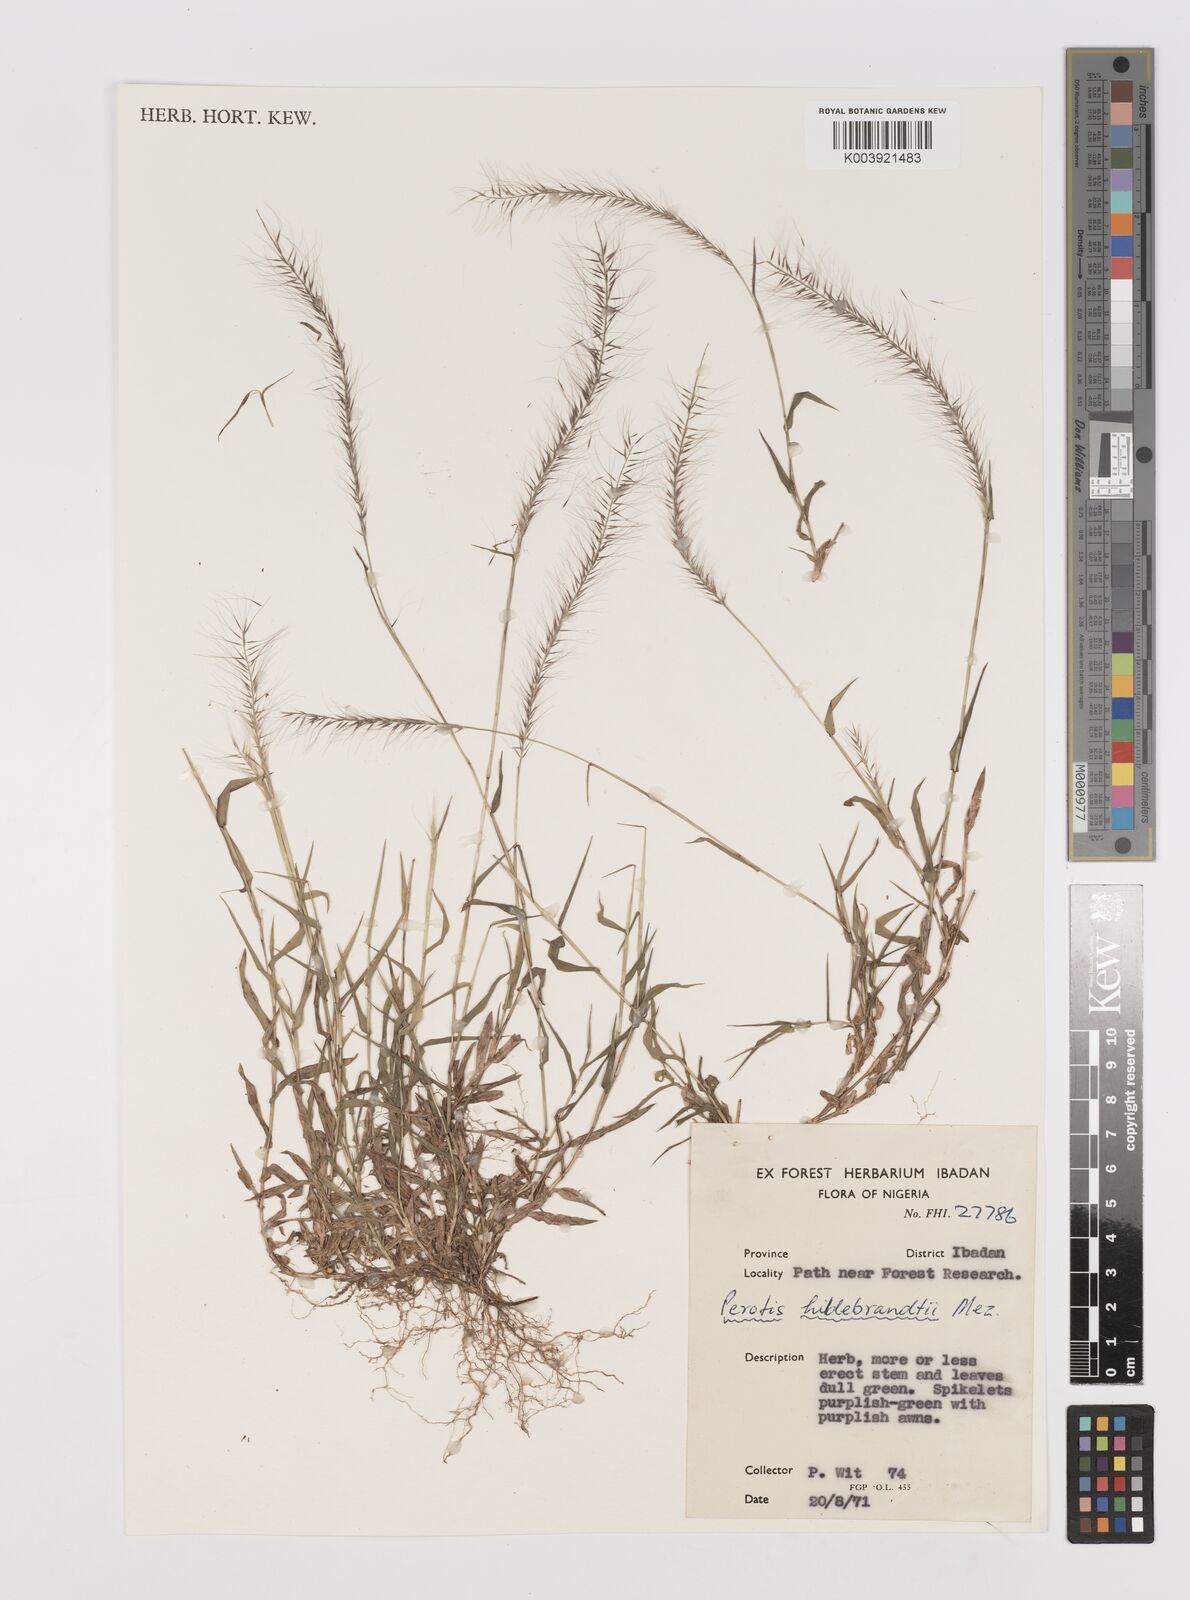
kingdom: Plantae
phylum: Tracheophyta
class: Liliopsida
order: Poales
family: Poaceae
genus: Perotis
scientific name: Perotis hildebrandtii
